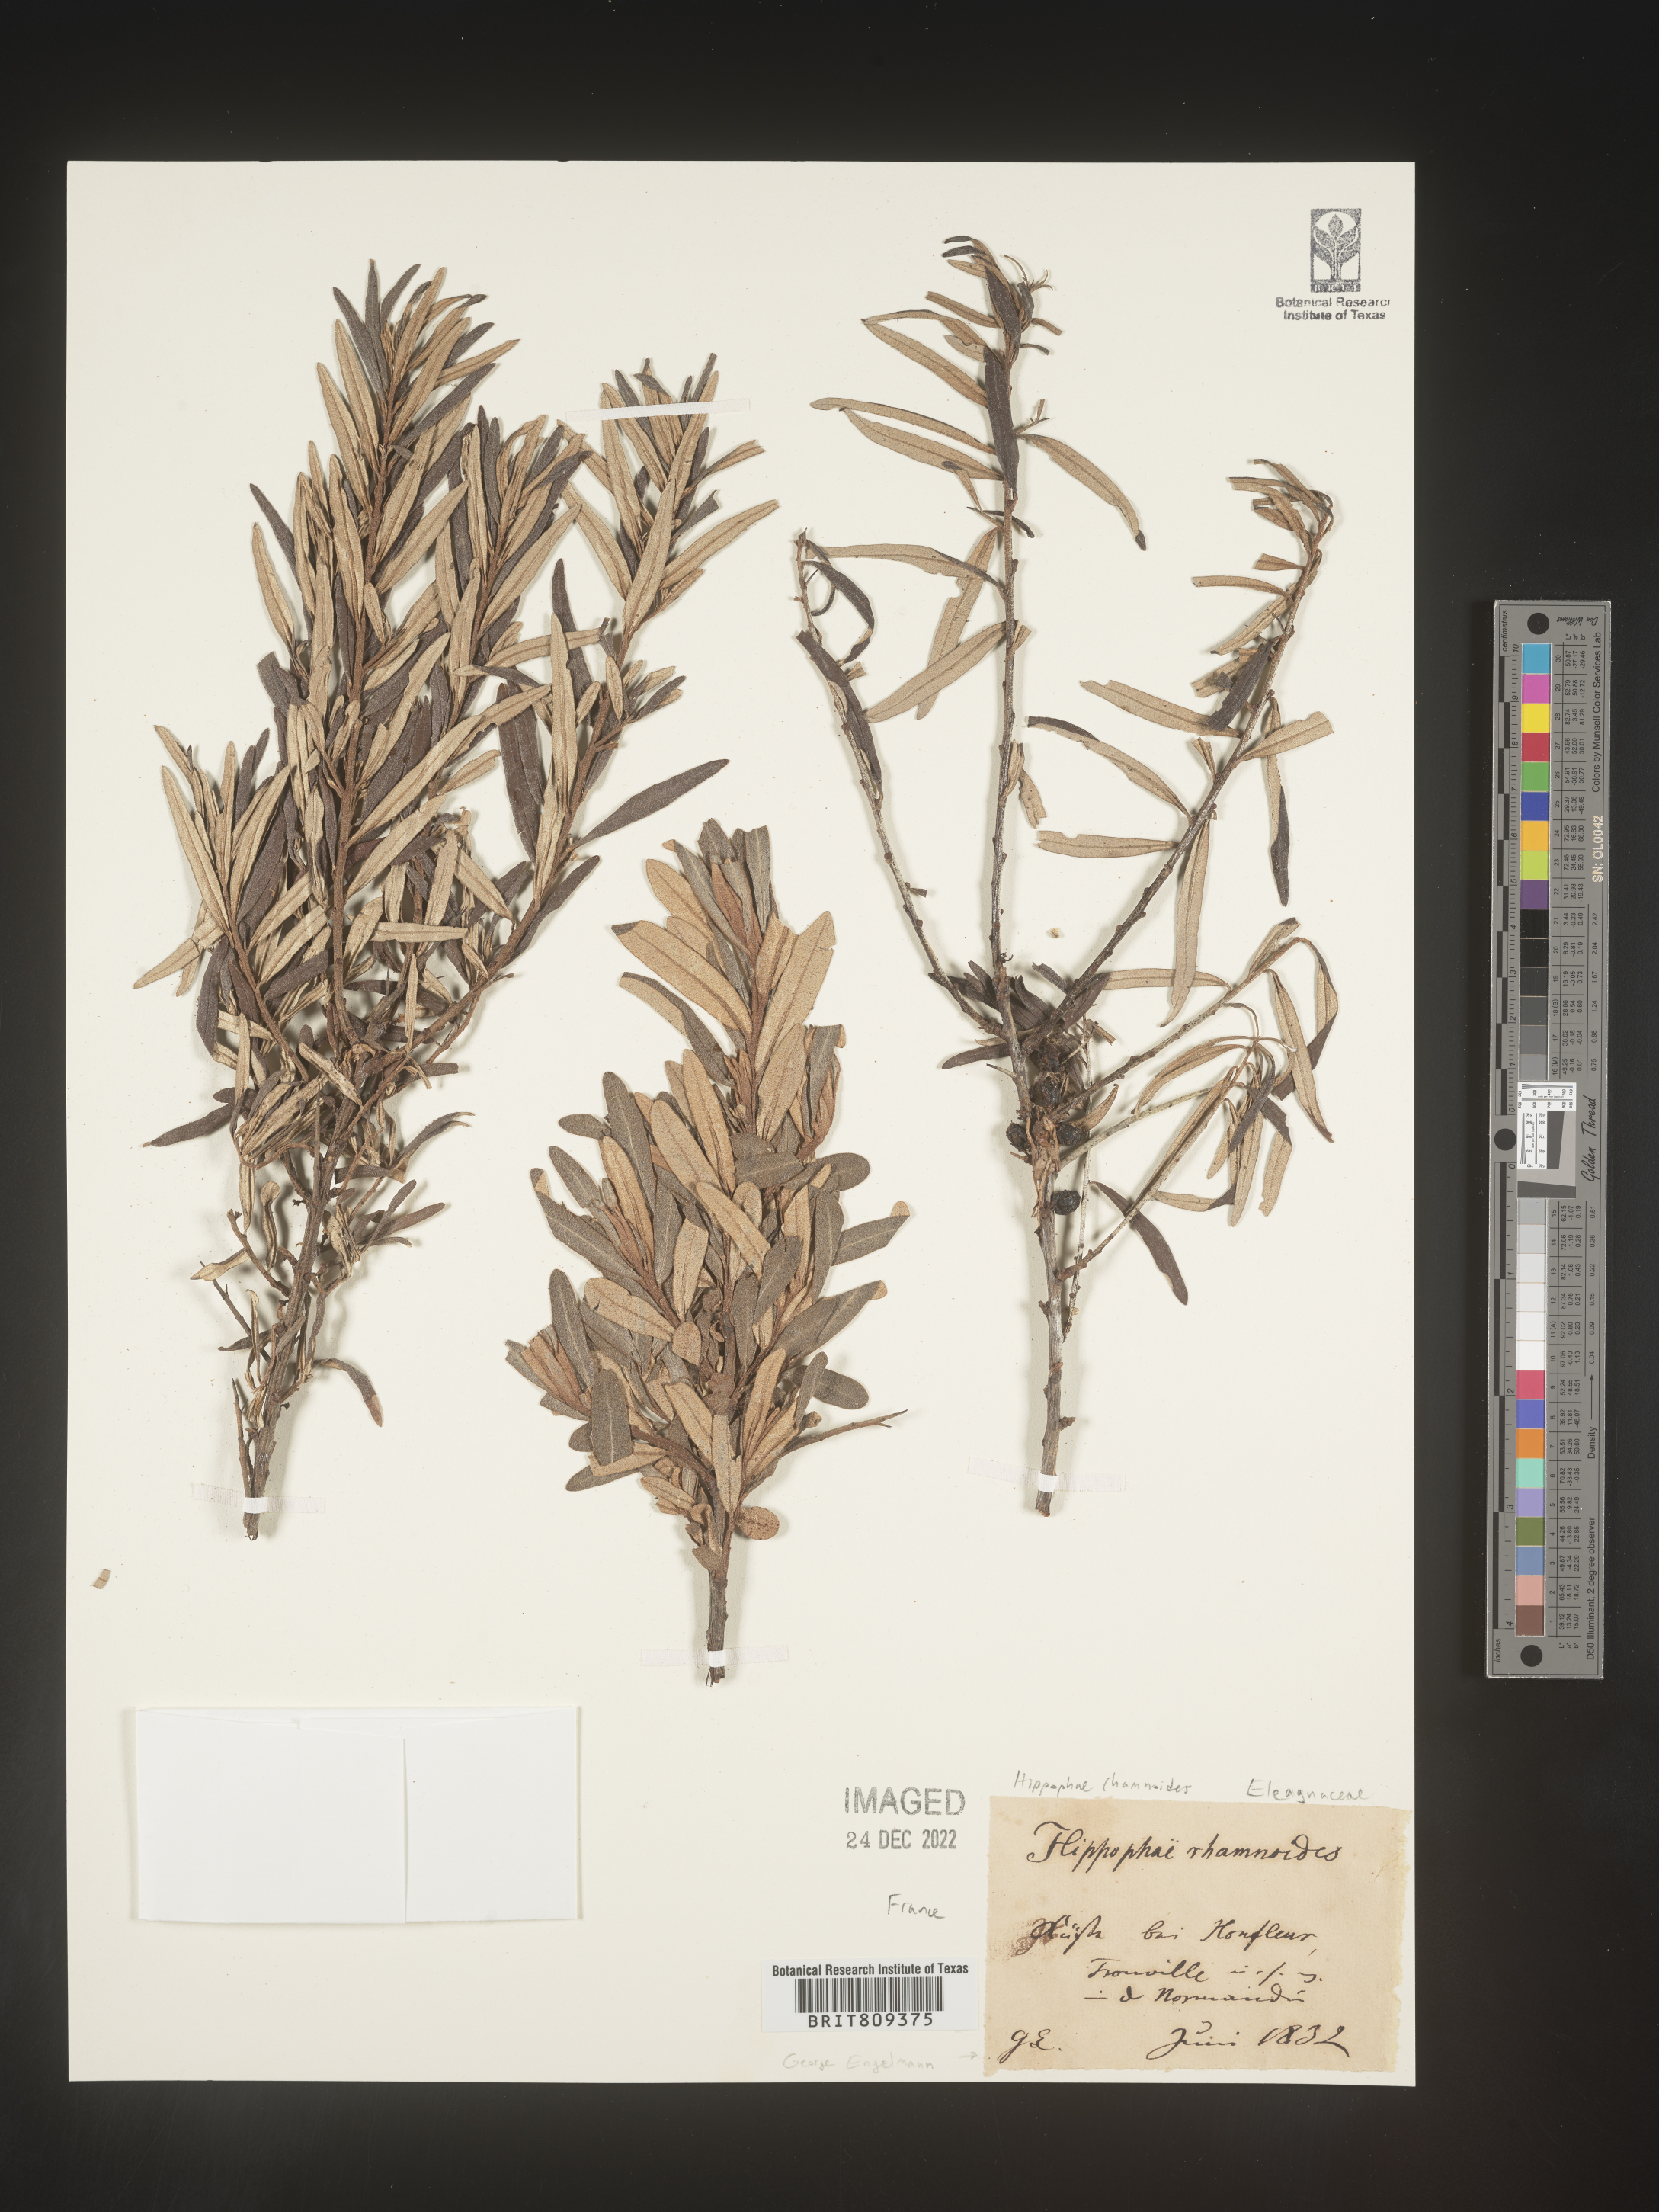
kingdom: Plantae
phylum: Tracheophyta
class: Magnoliopsida
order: Rosales
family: Elaeagnaceae
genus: Hippophae
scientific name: Hippophae
